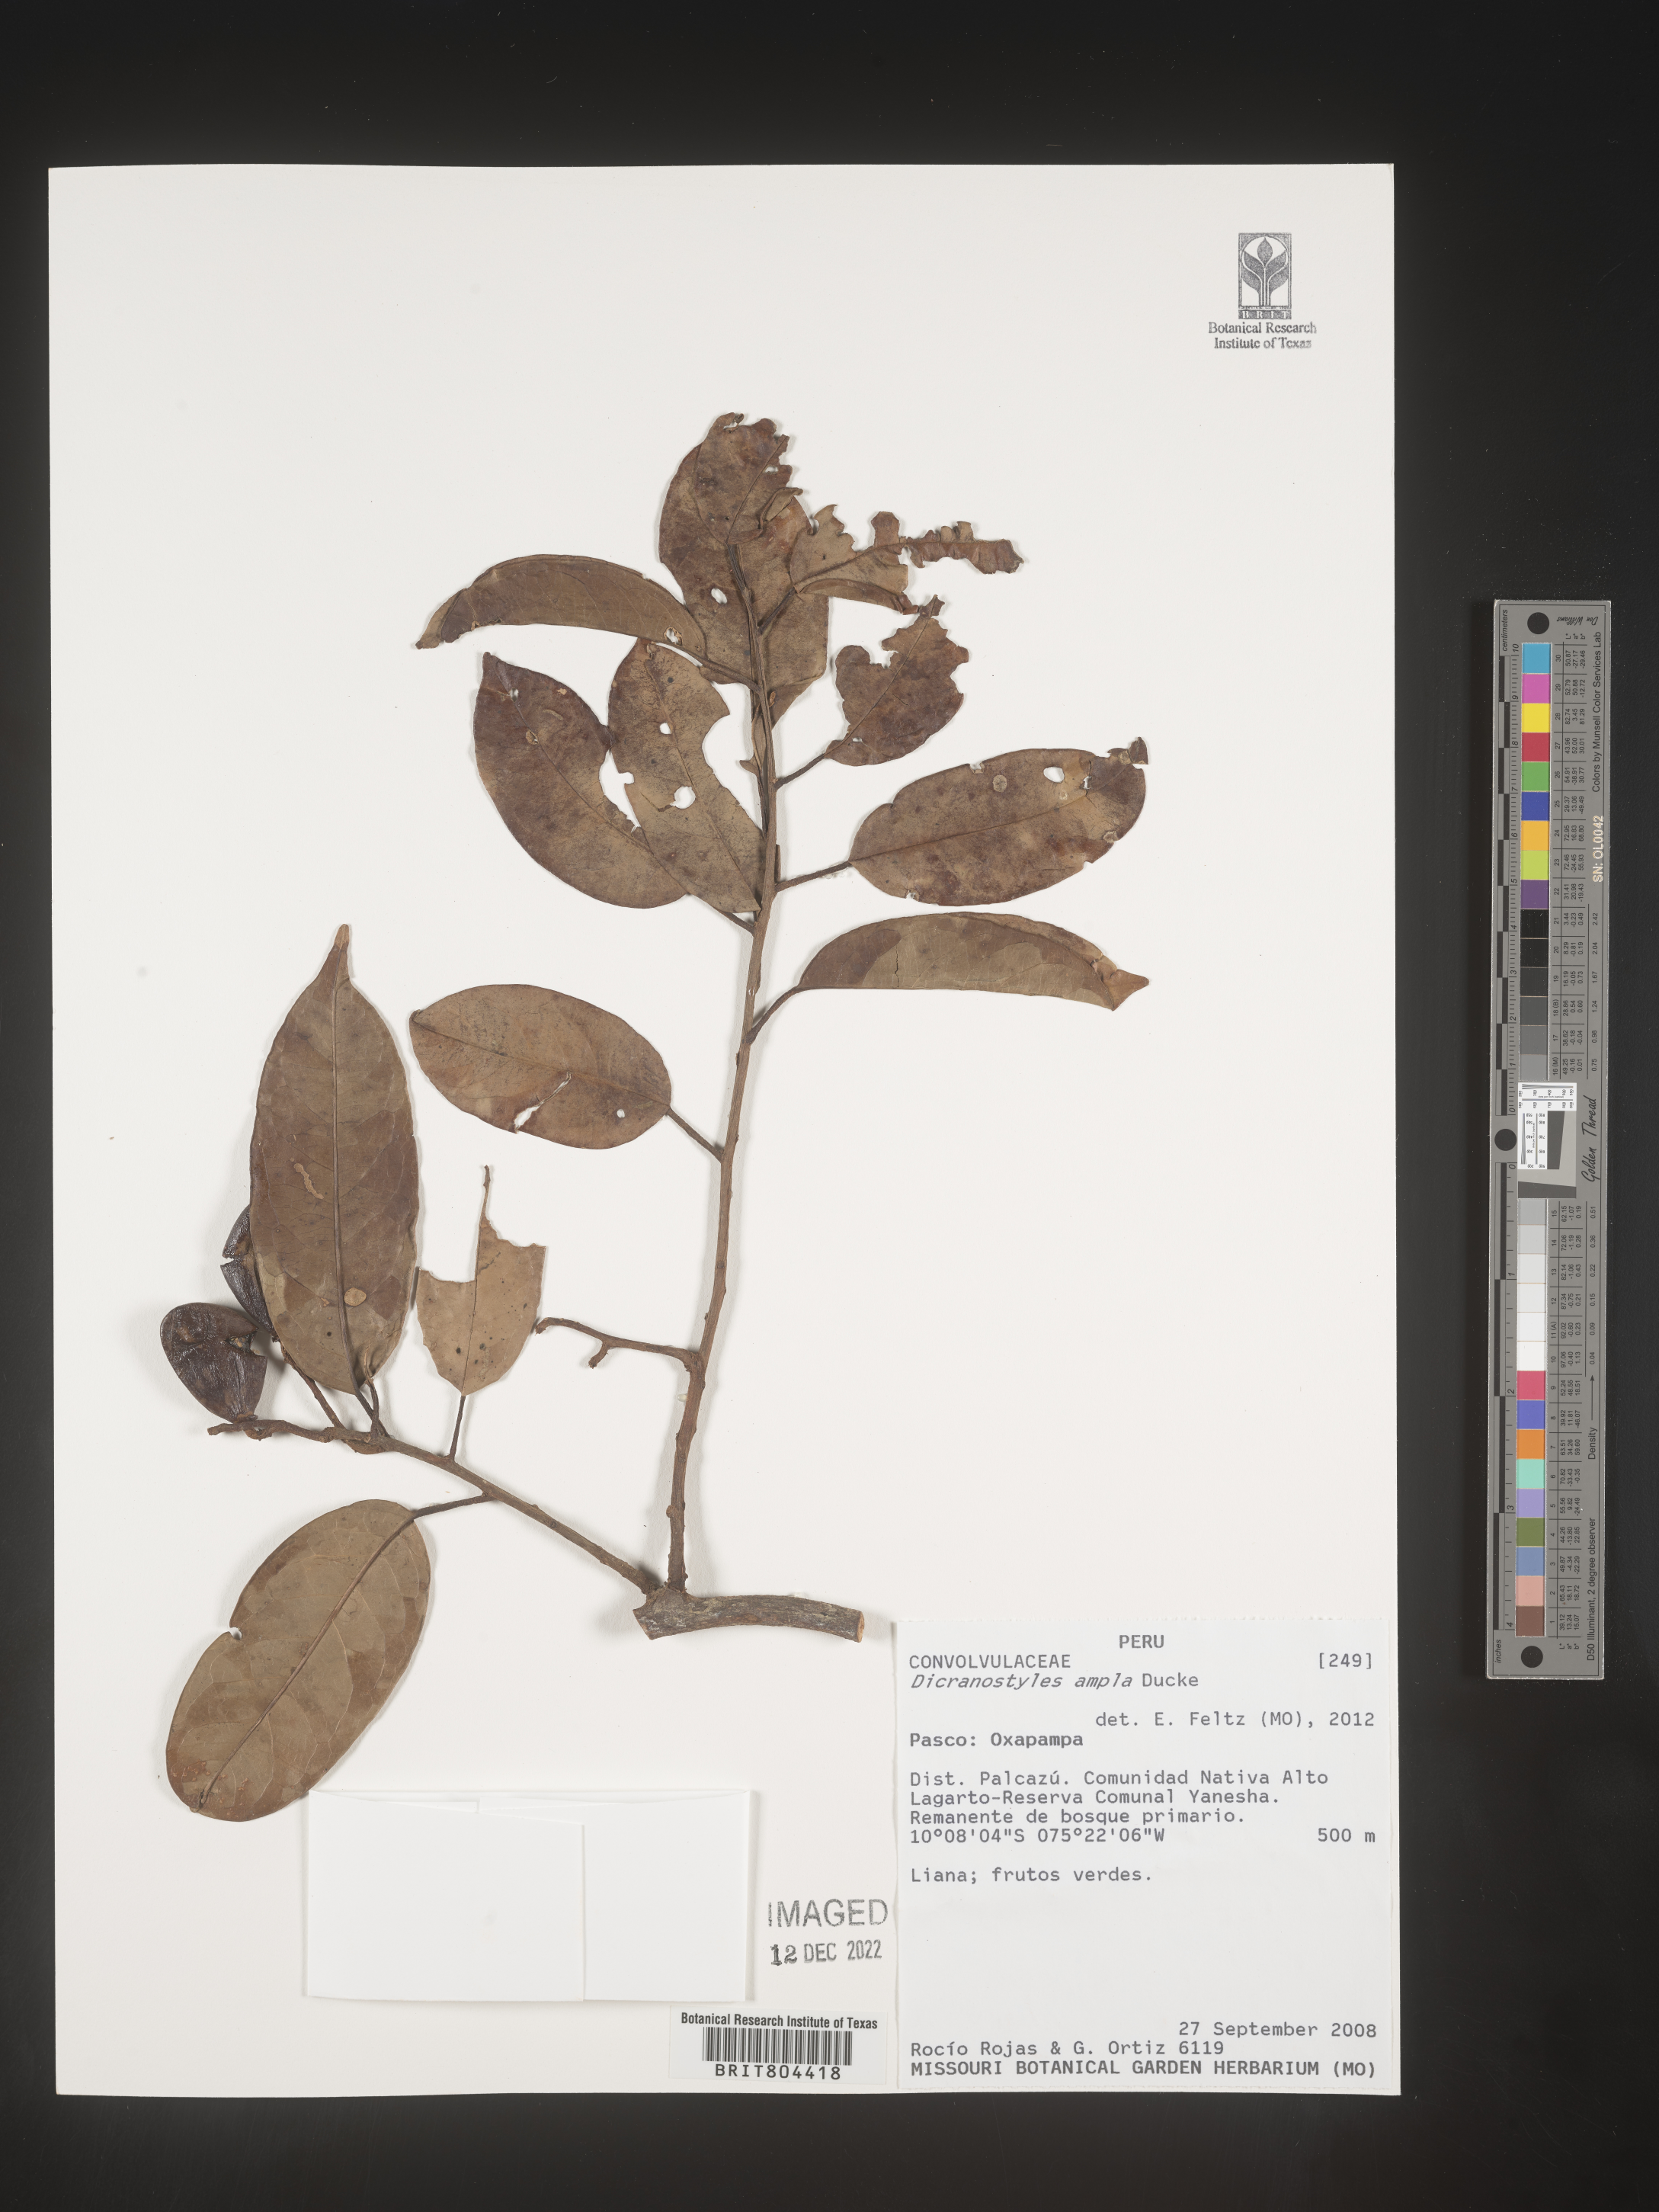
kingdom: Plantae
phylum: Tracheophyta
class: Magnoliopsida
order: Solanales
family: Convolvulaceae
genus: Dicranostyles
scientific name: Dicranostyles
